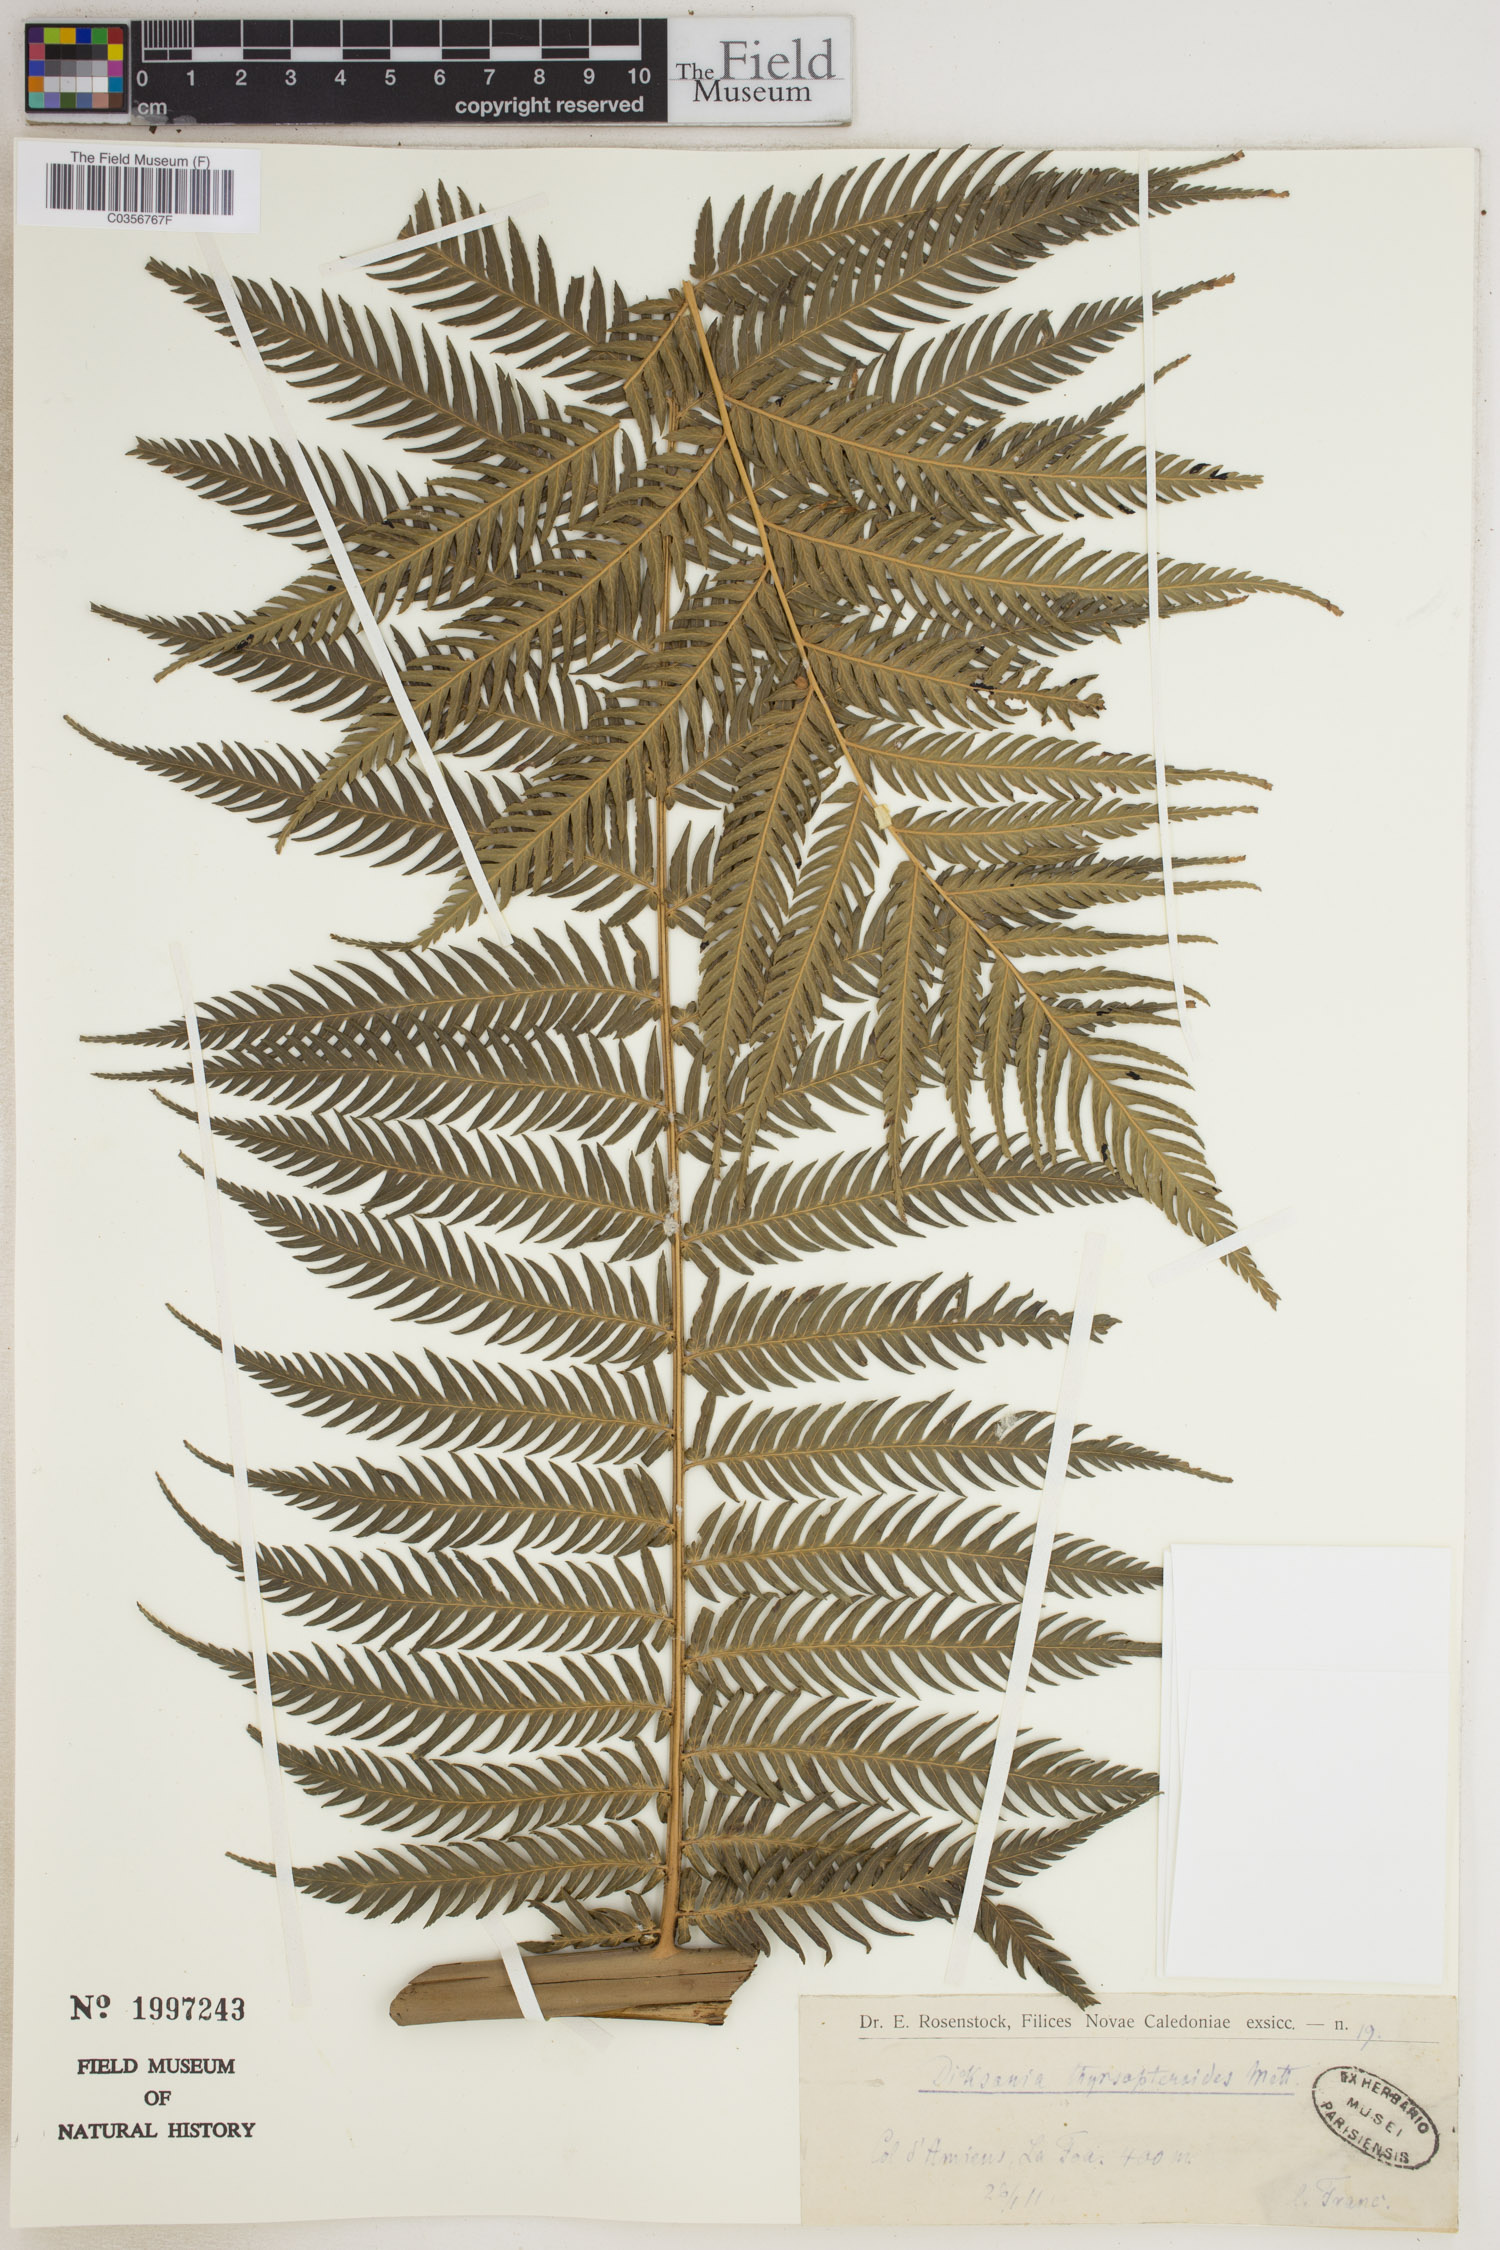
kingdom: Plantae
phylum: Tracheophyta
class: Polypodiopsida
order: Cyatheales
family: Dicksoniaceae
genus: Dicksonia
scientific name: Dicksonia thyrsopteroides
